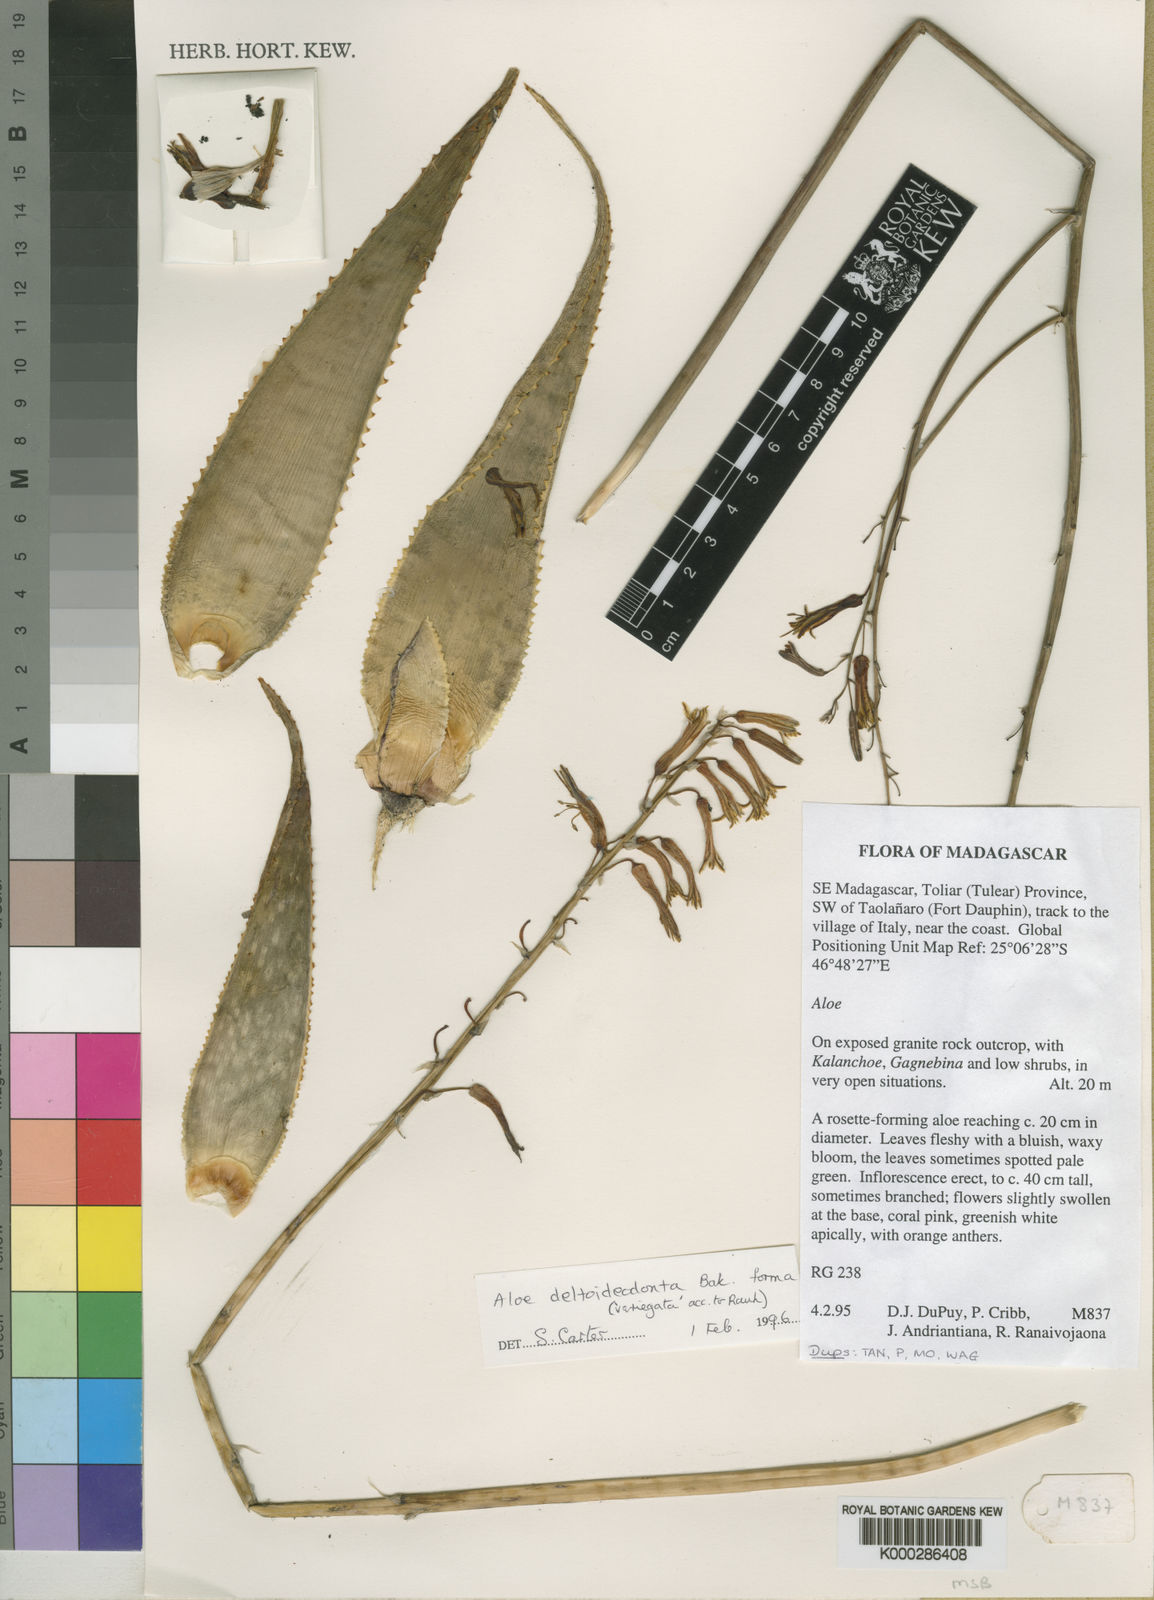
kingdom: Plantae
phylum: Tracheophyta
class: Liliopsida
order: Asparagales
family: Asphodelaceae
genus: Aloe
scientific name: Aloe imalotensis
